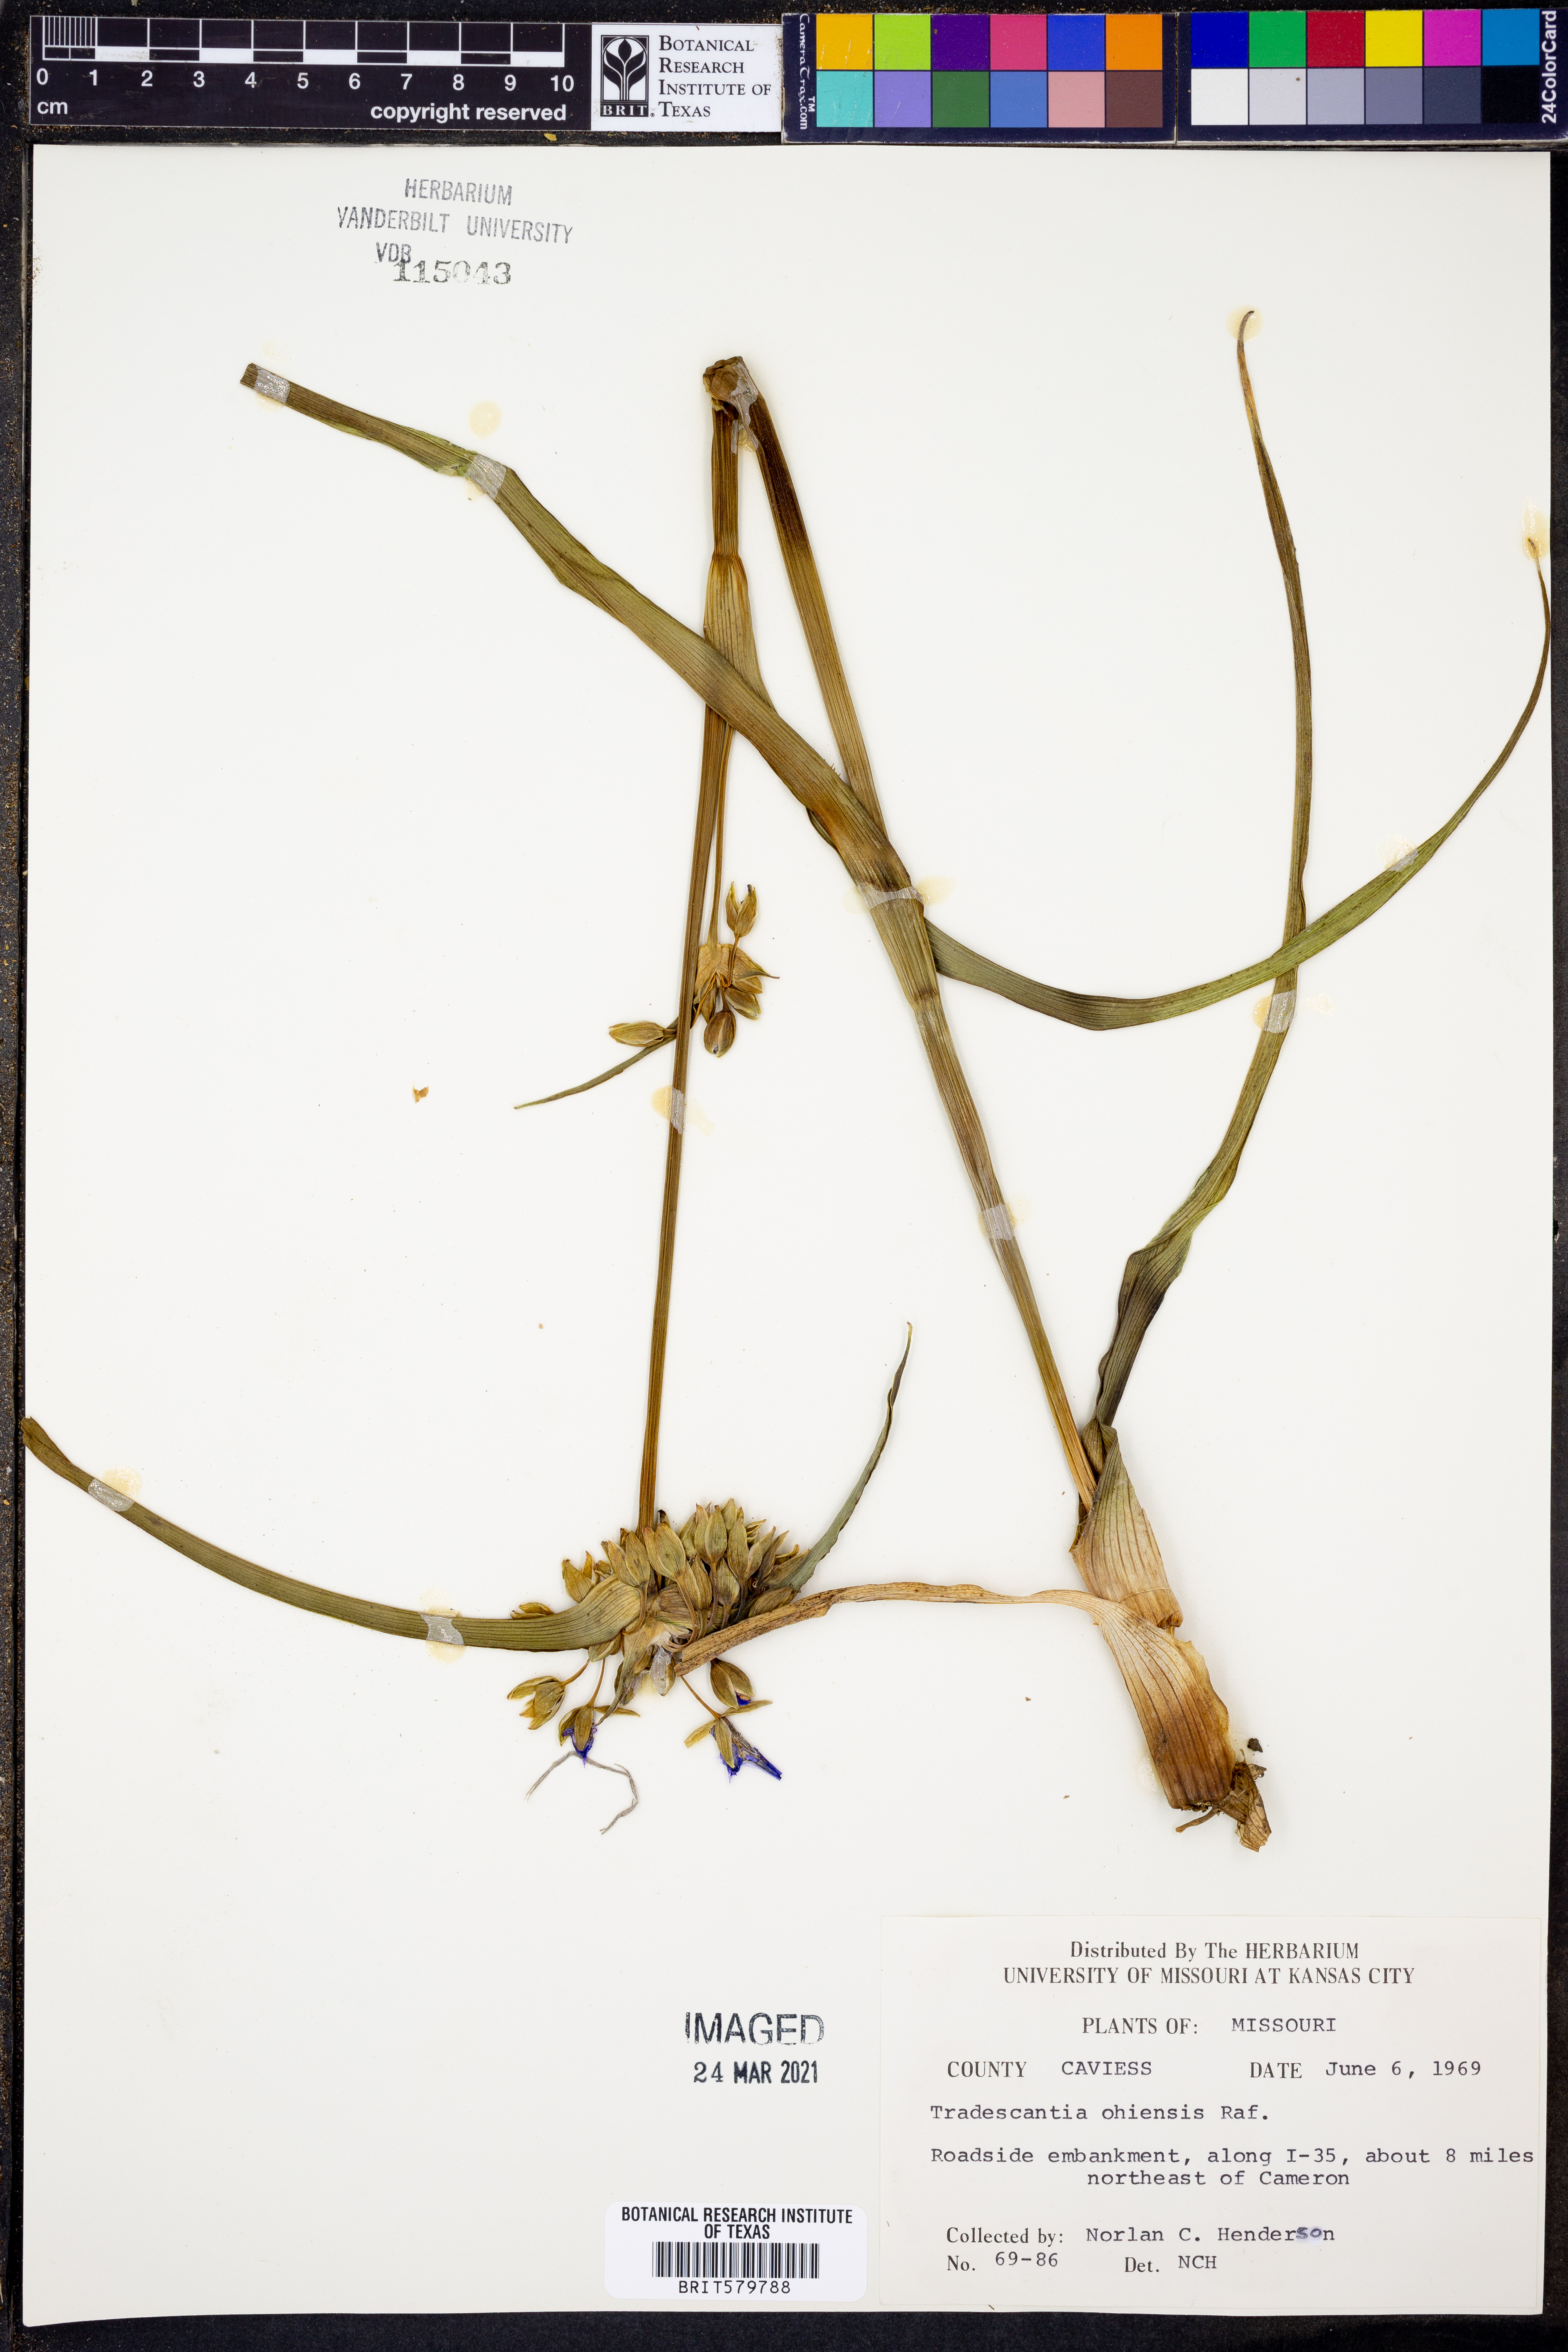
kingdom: Plantae
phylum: Tracheophyta
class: Liliopsida
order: Commelinales
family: Commelinaceae
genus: Tradescantia
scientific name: Tradescantia ohiensis
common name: Ohio spiderwort
